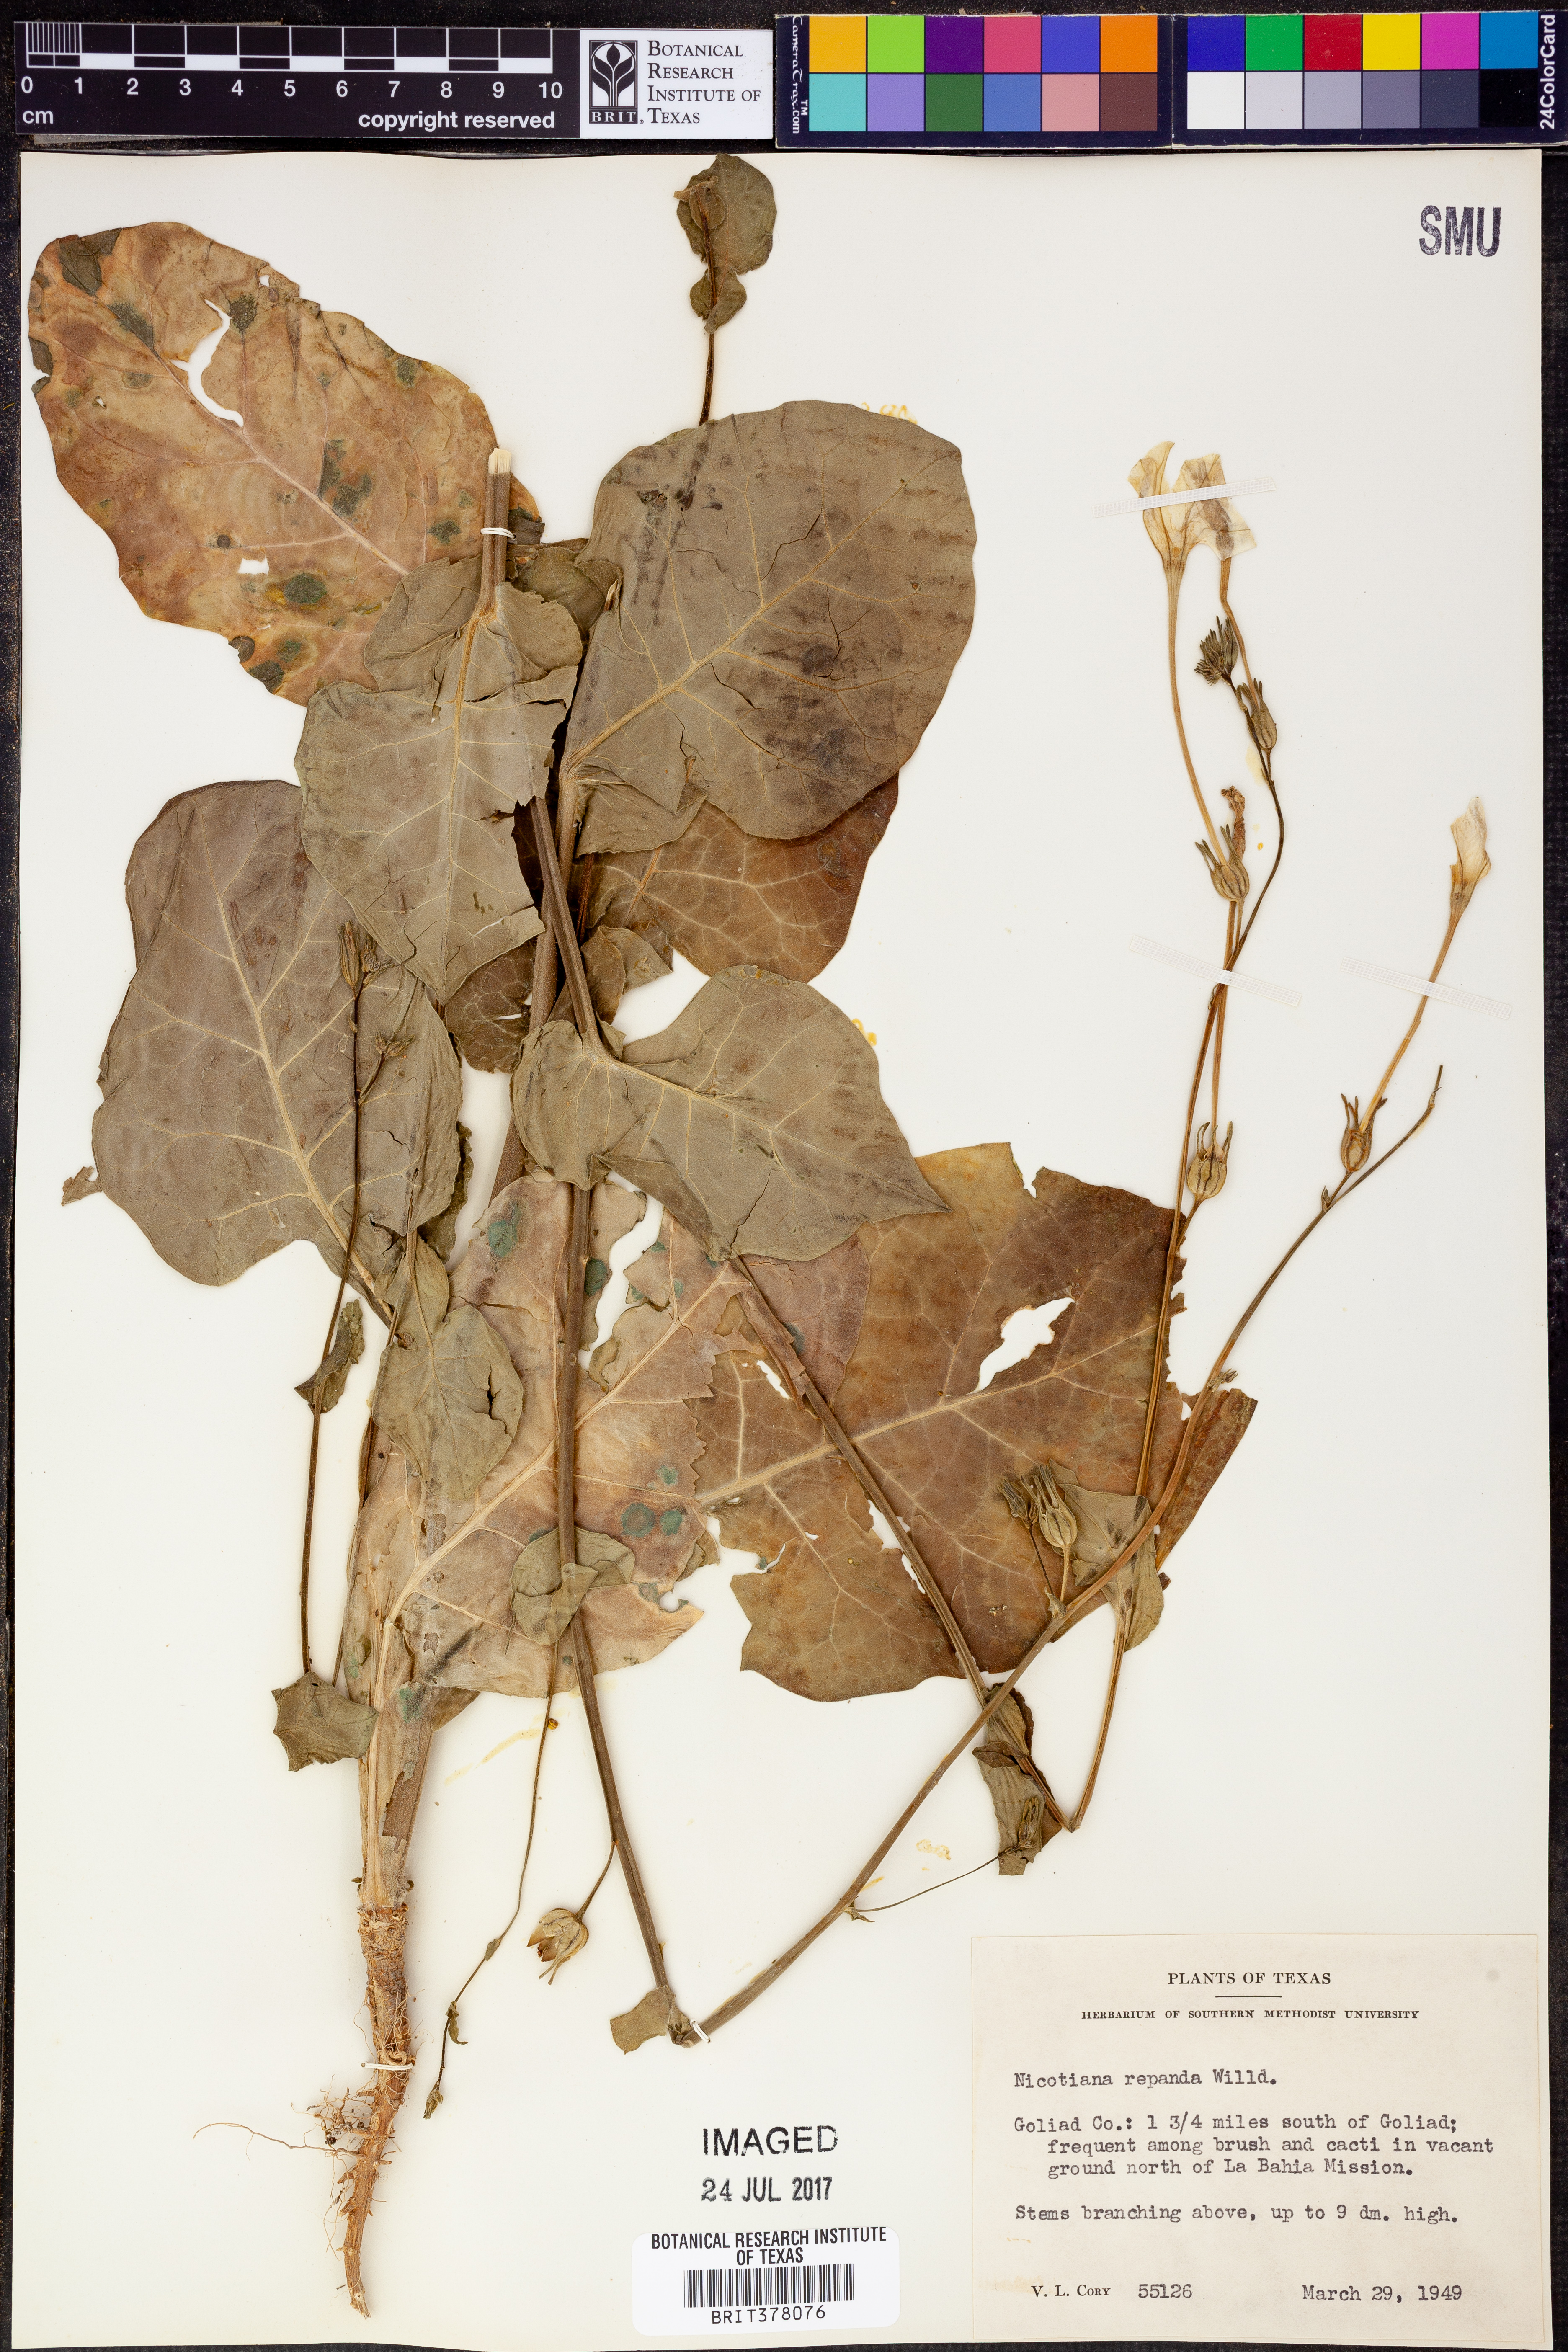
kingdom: Plantae
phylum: Tracheophyta
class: Magnoliopsida
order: Solanales
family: Solanaceae
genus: Nicotiana
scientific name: Nicotiana repanda
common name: Fiddle-leaf tobacco
